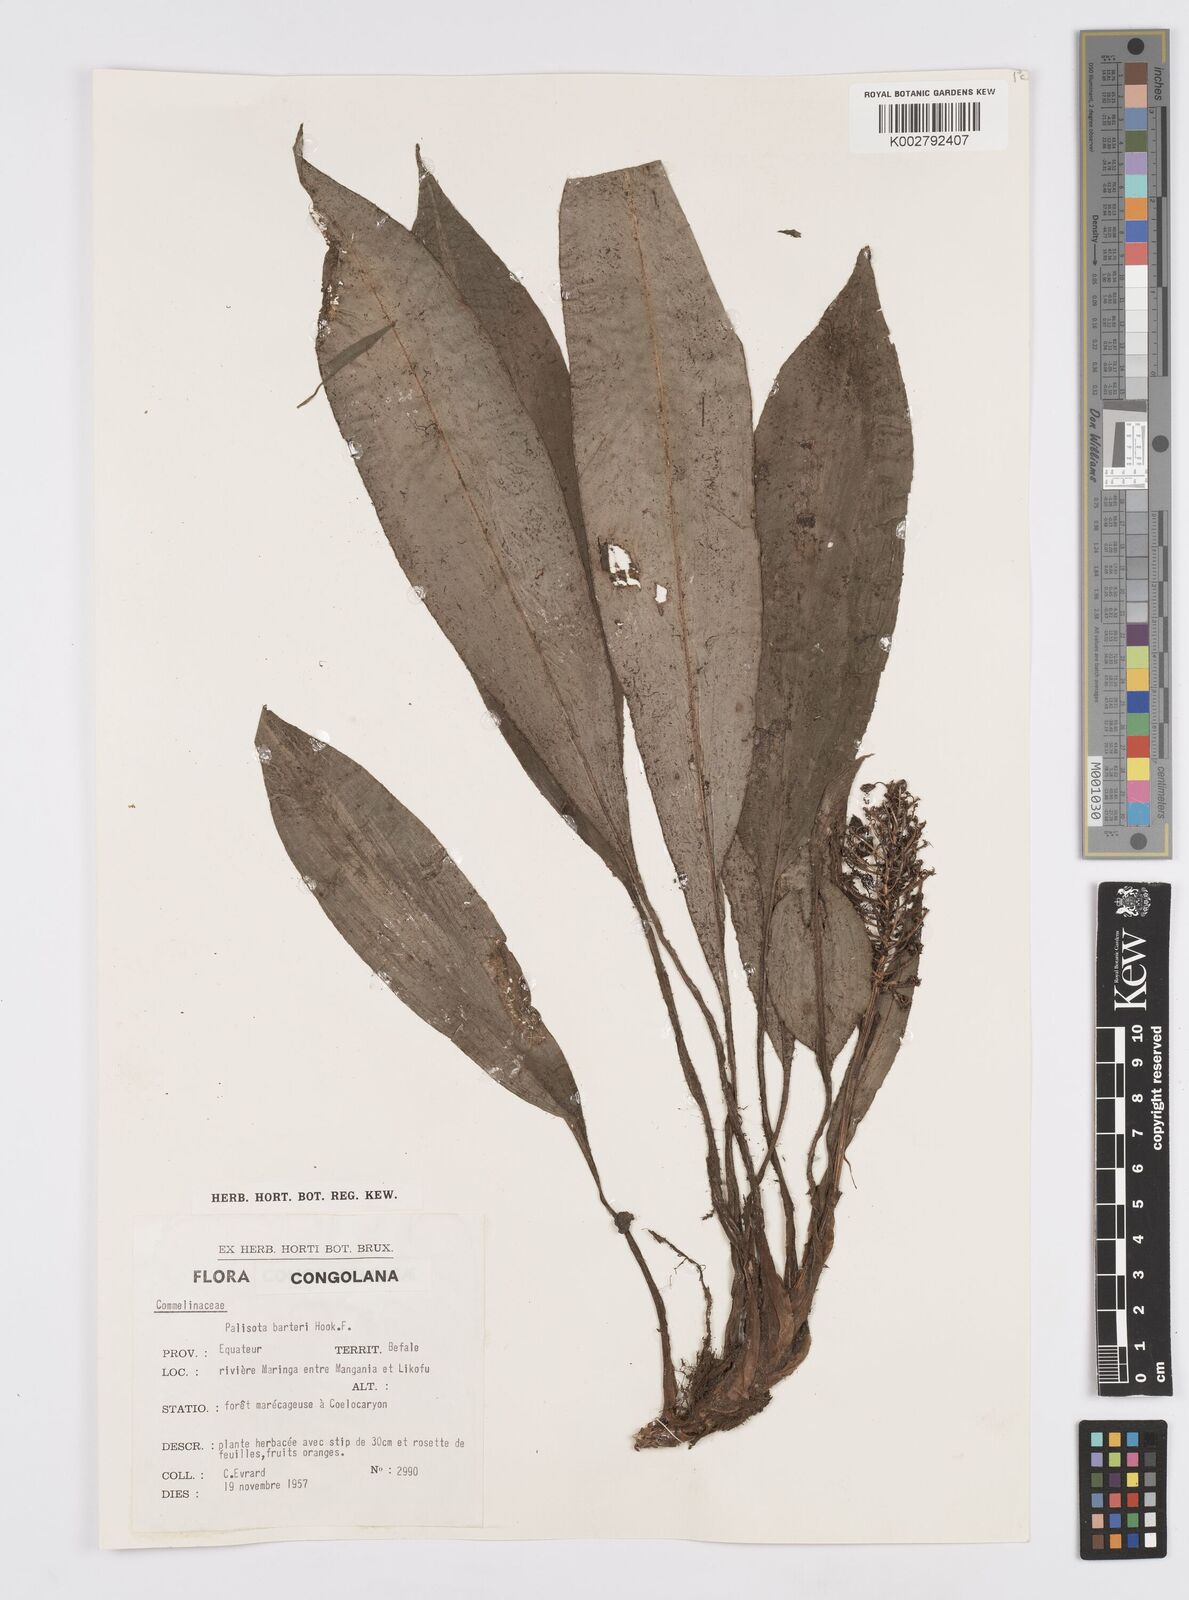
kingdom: Plantae
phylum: Tracheophyta
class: Liliopsida
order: Commelinales
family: Commelinaceae
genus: Palisota
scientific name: Palisota barteri
